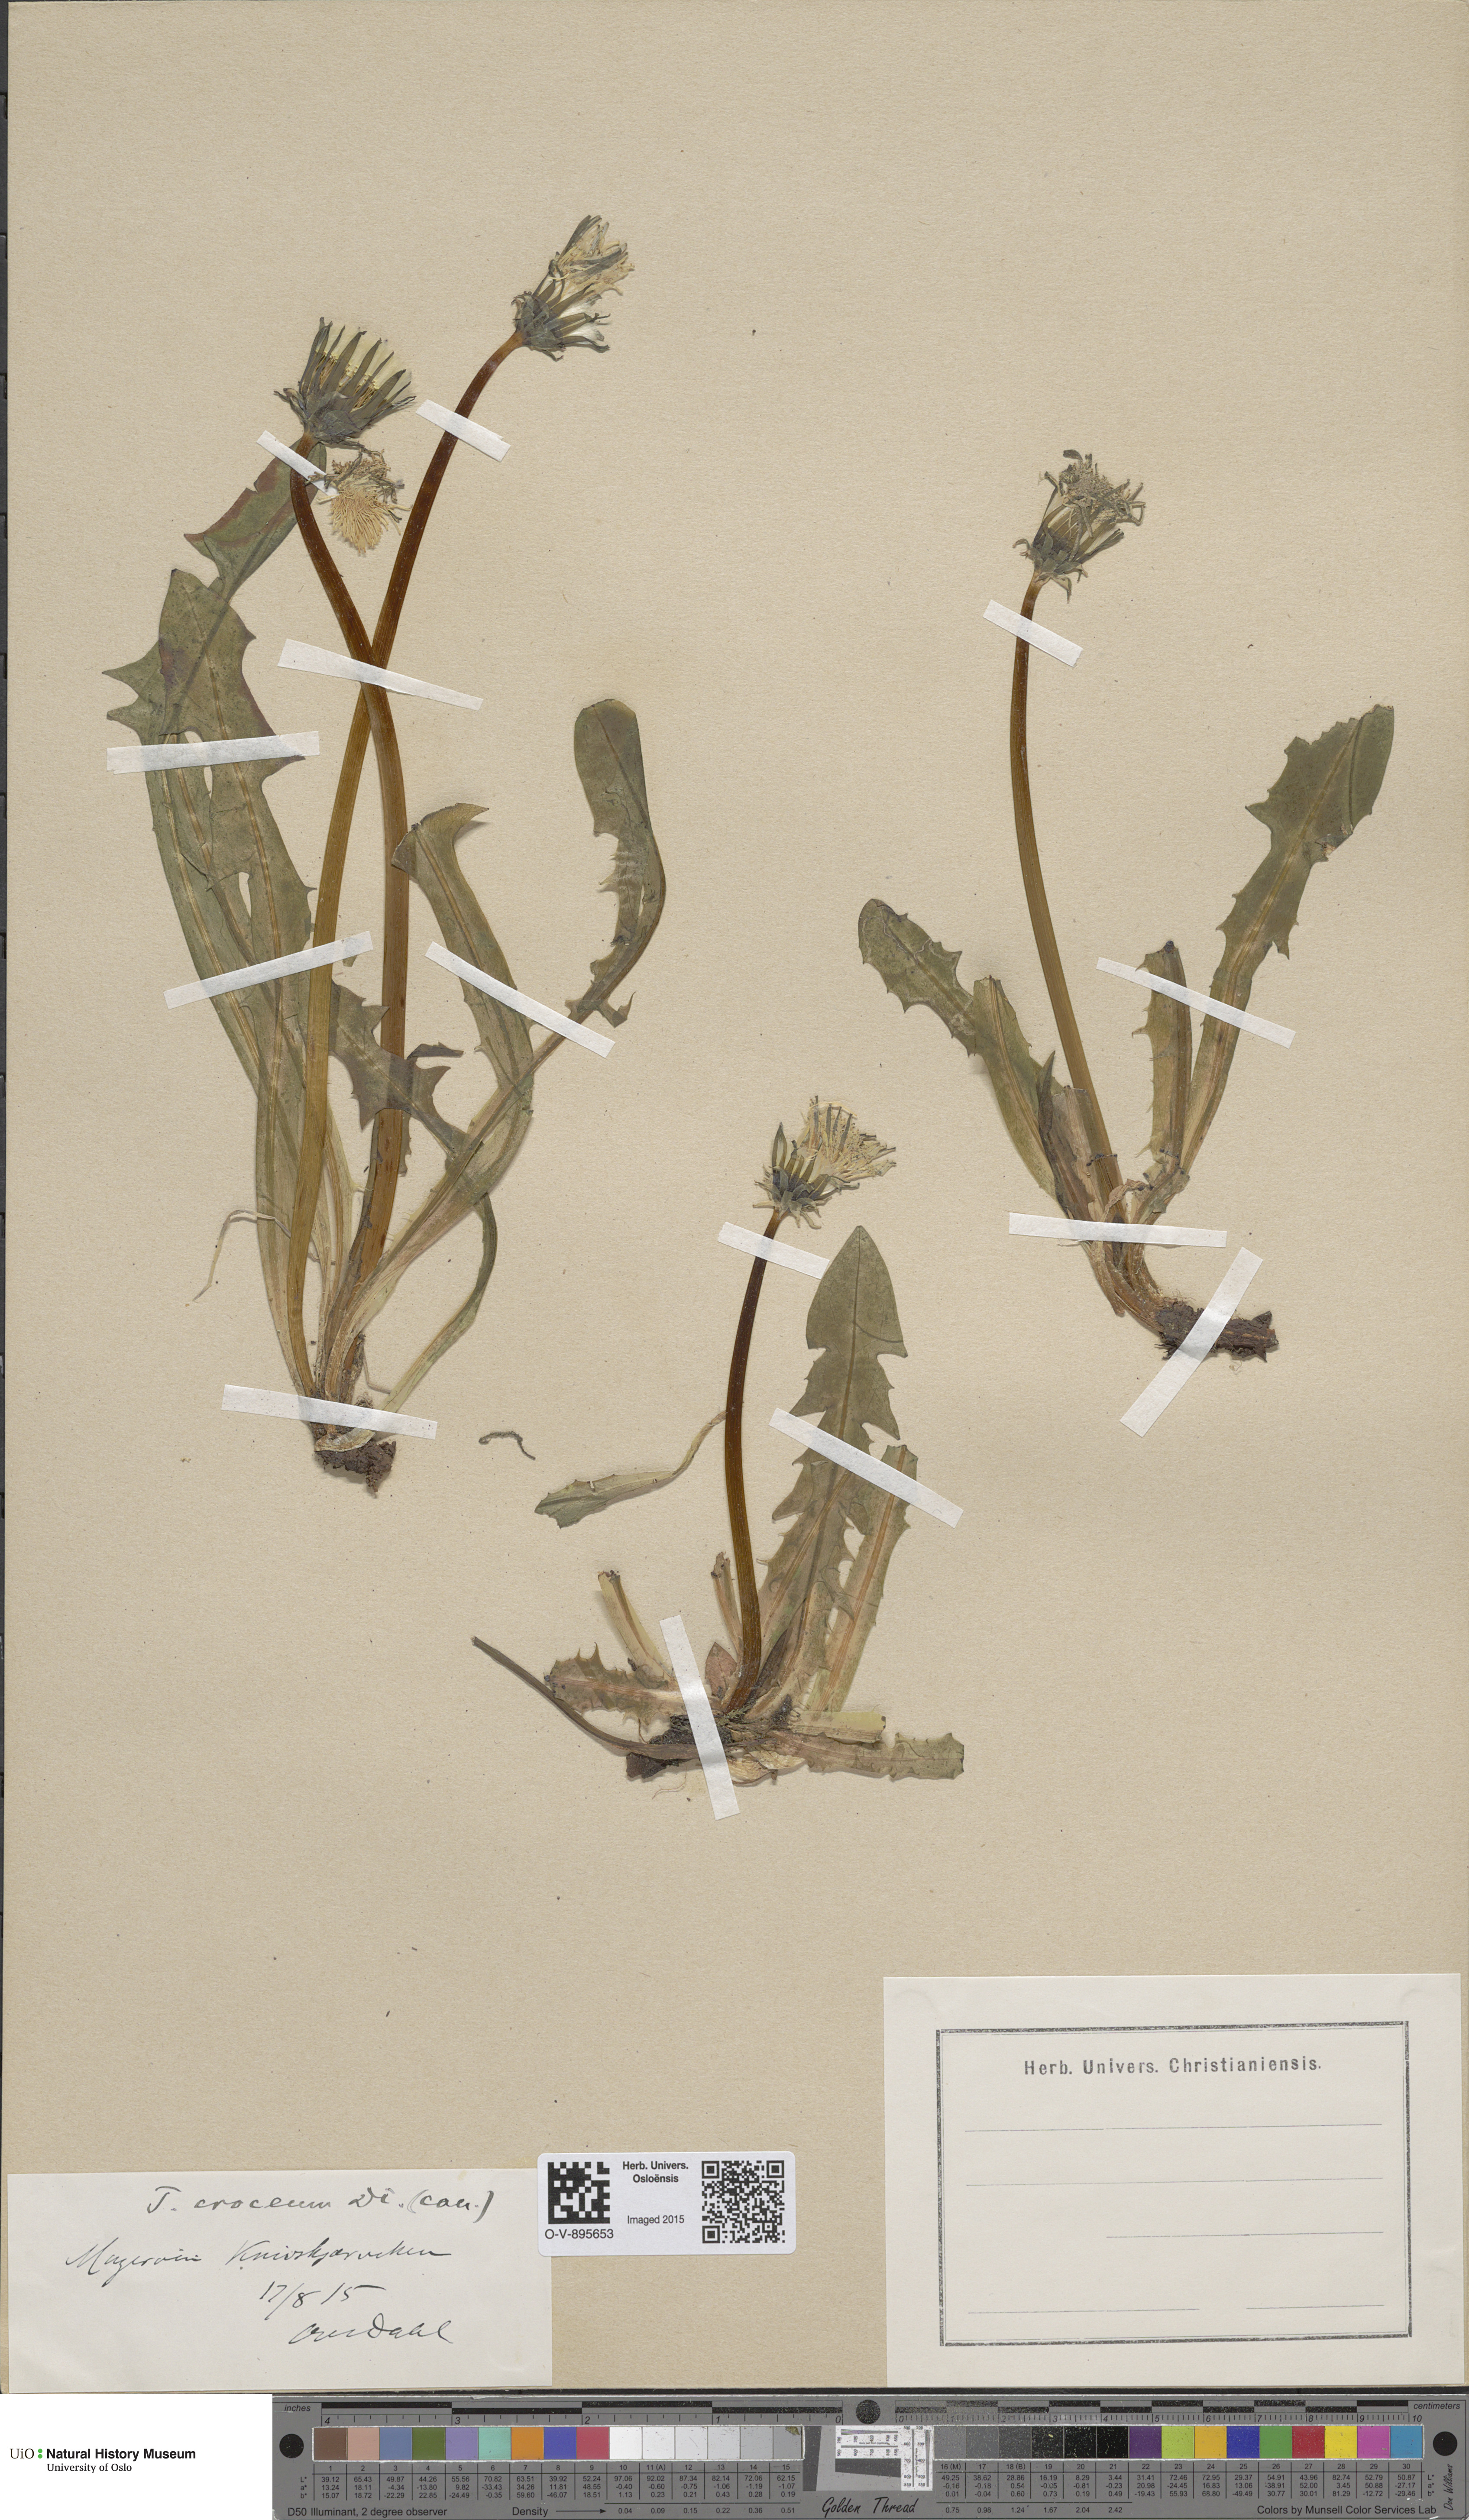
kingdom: Plantae
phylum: Tracheophyta
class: Magnoliopsida
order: Asterales
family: Asteraceae
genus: Taraxacum
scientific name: Taraxacum croceum
